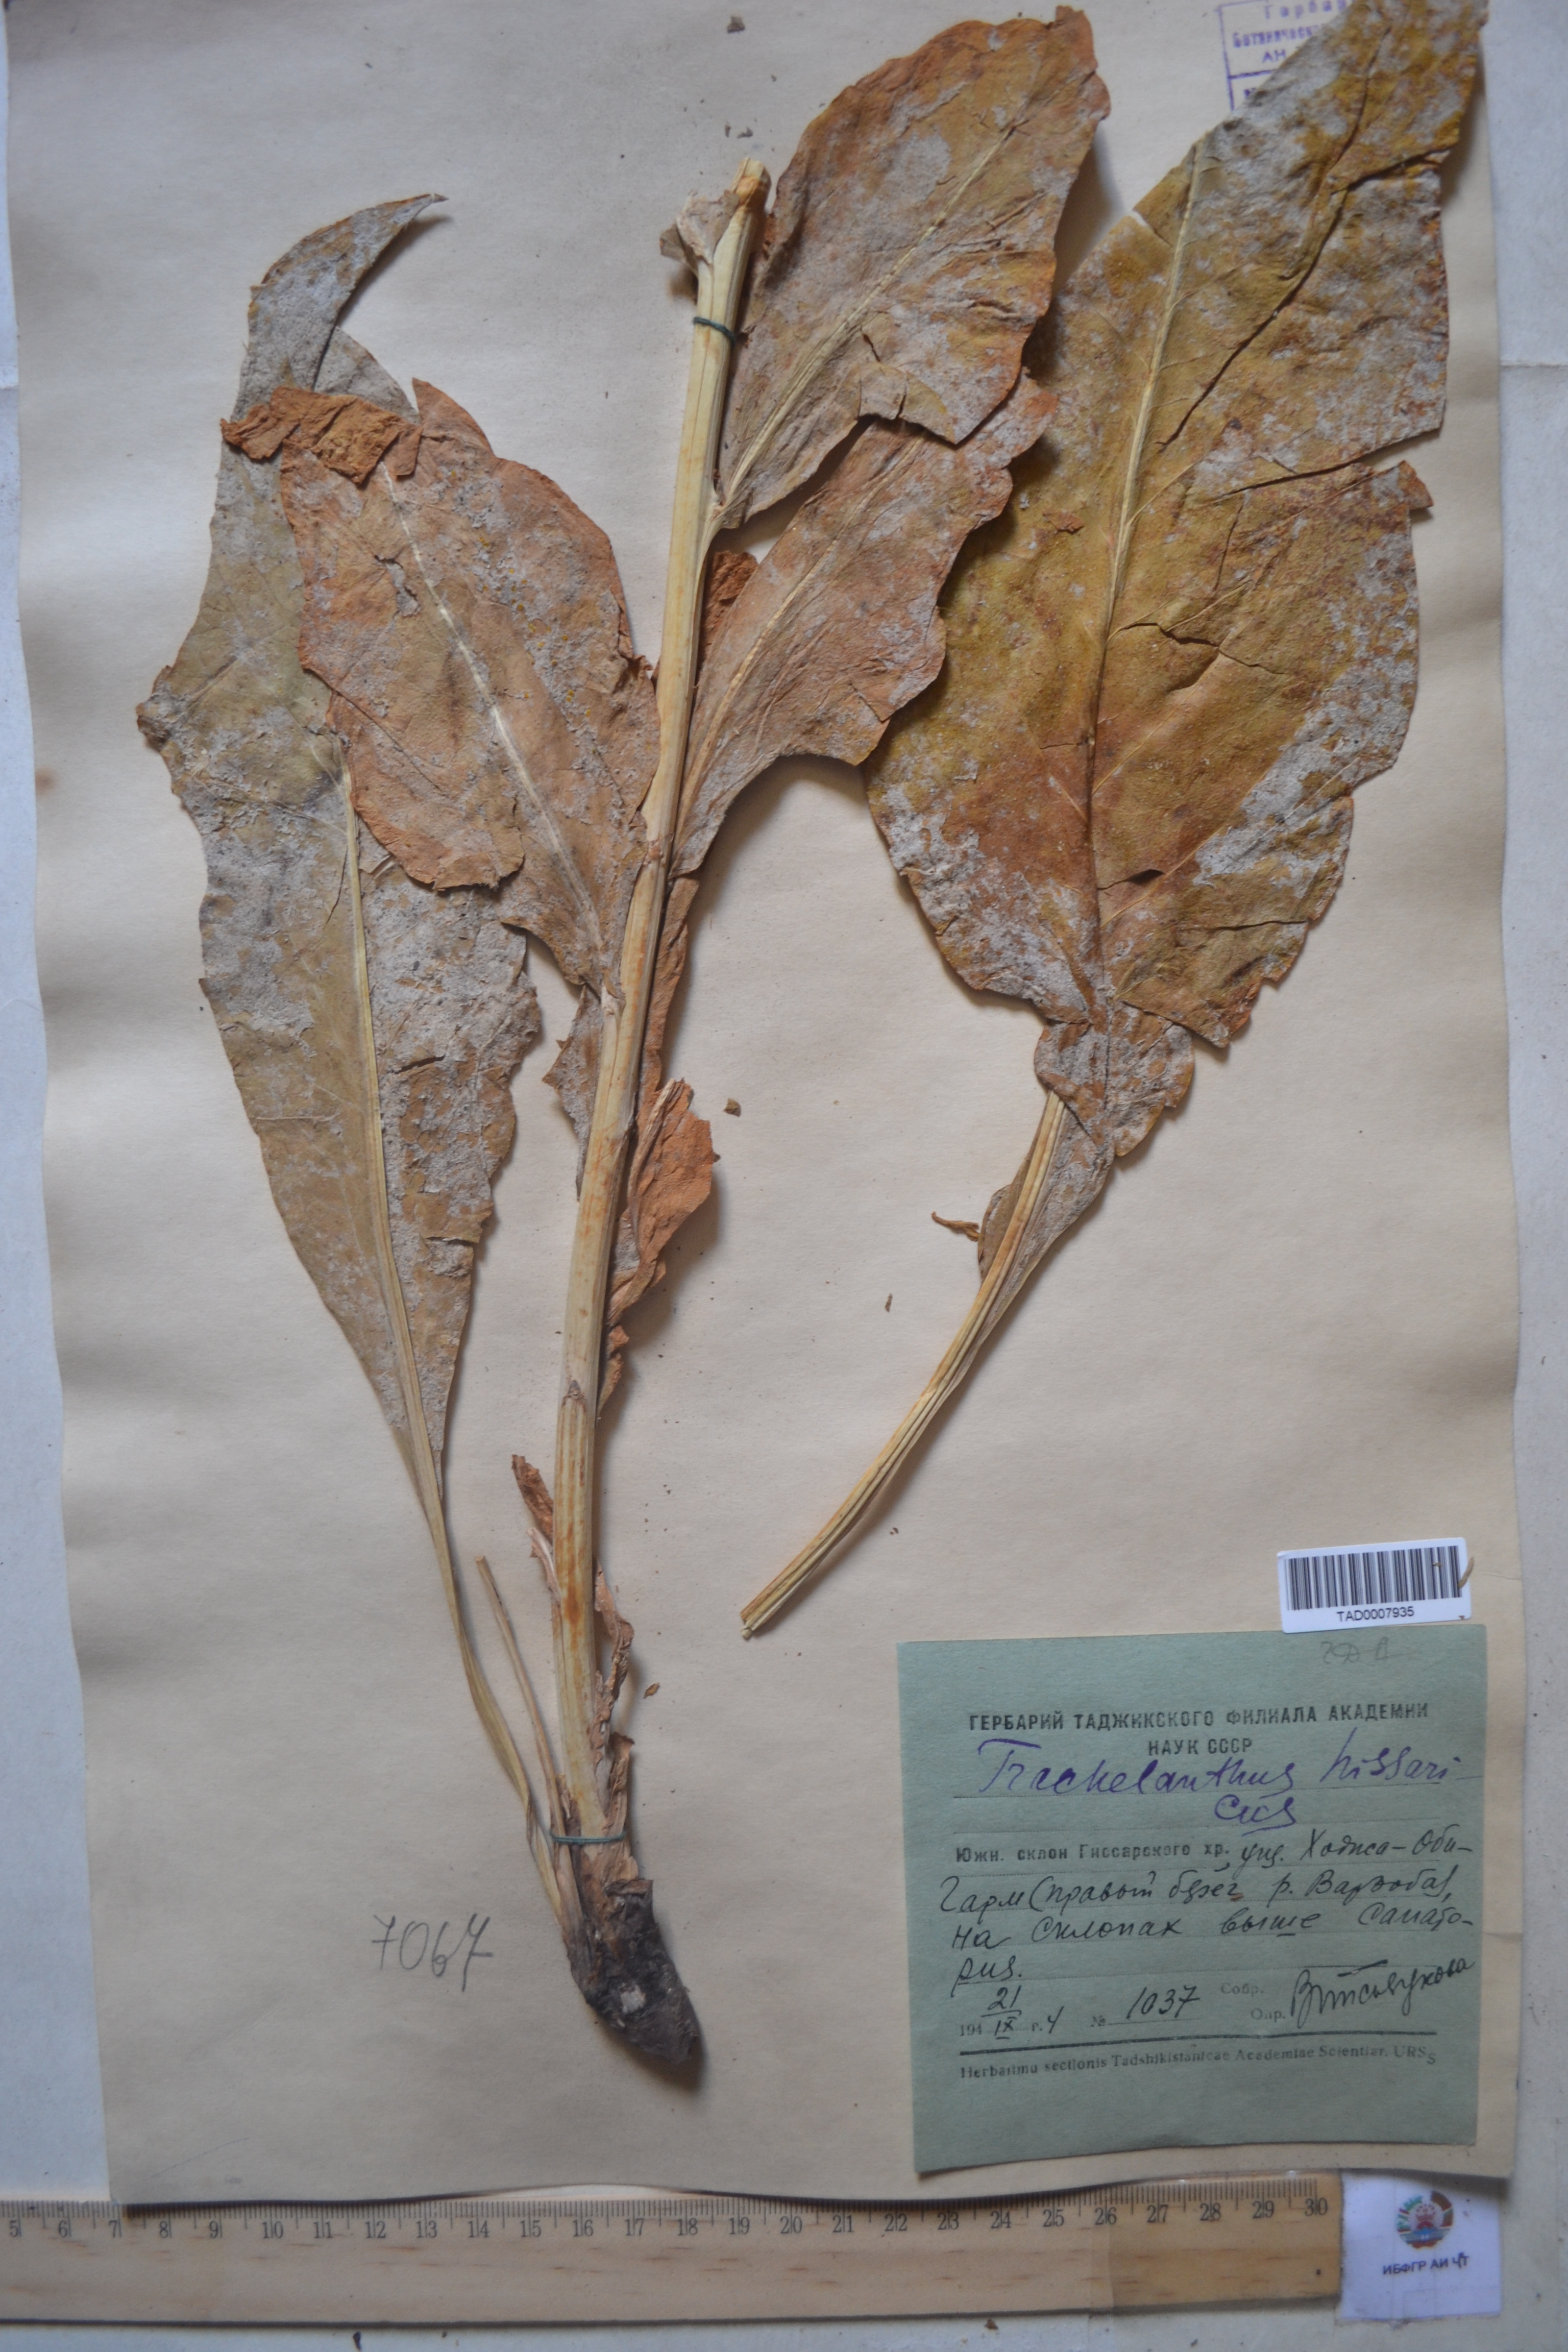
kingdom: Plantae
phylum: Tracheophyta
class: Magnoliopsida
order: Boraginales
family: Boraginaceae
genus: Lindelofia
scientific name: Lindelofia hissarica
